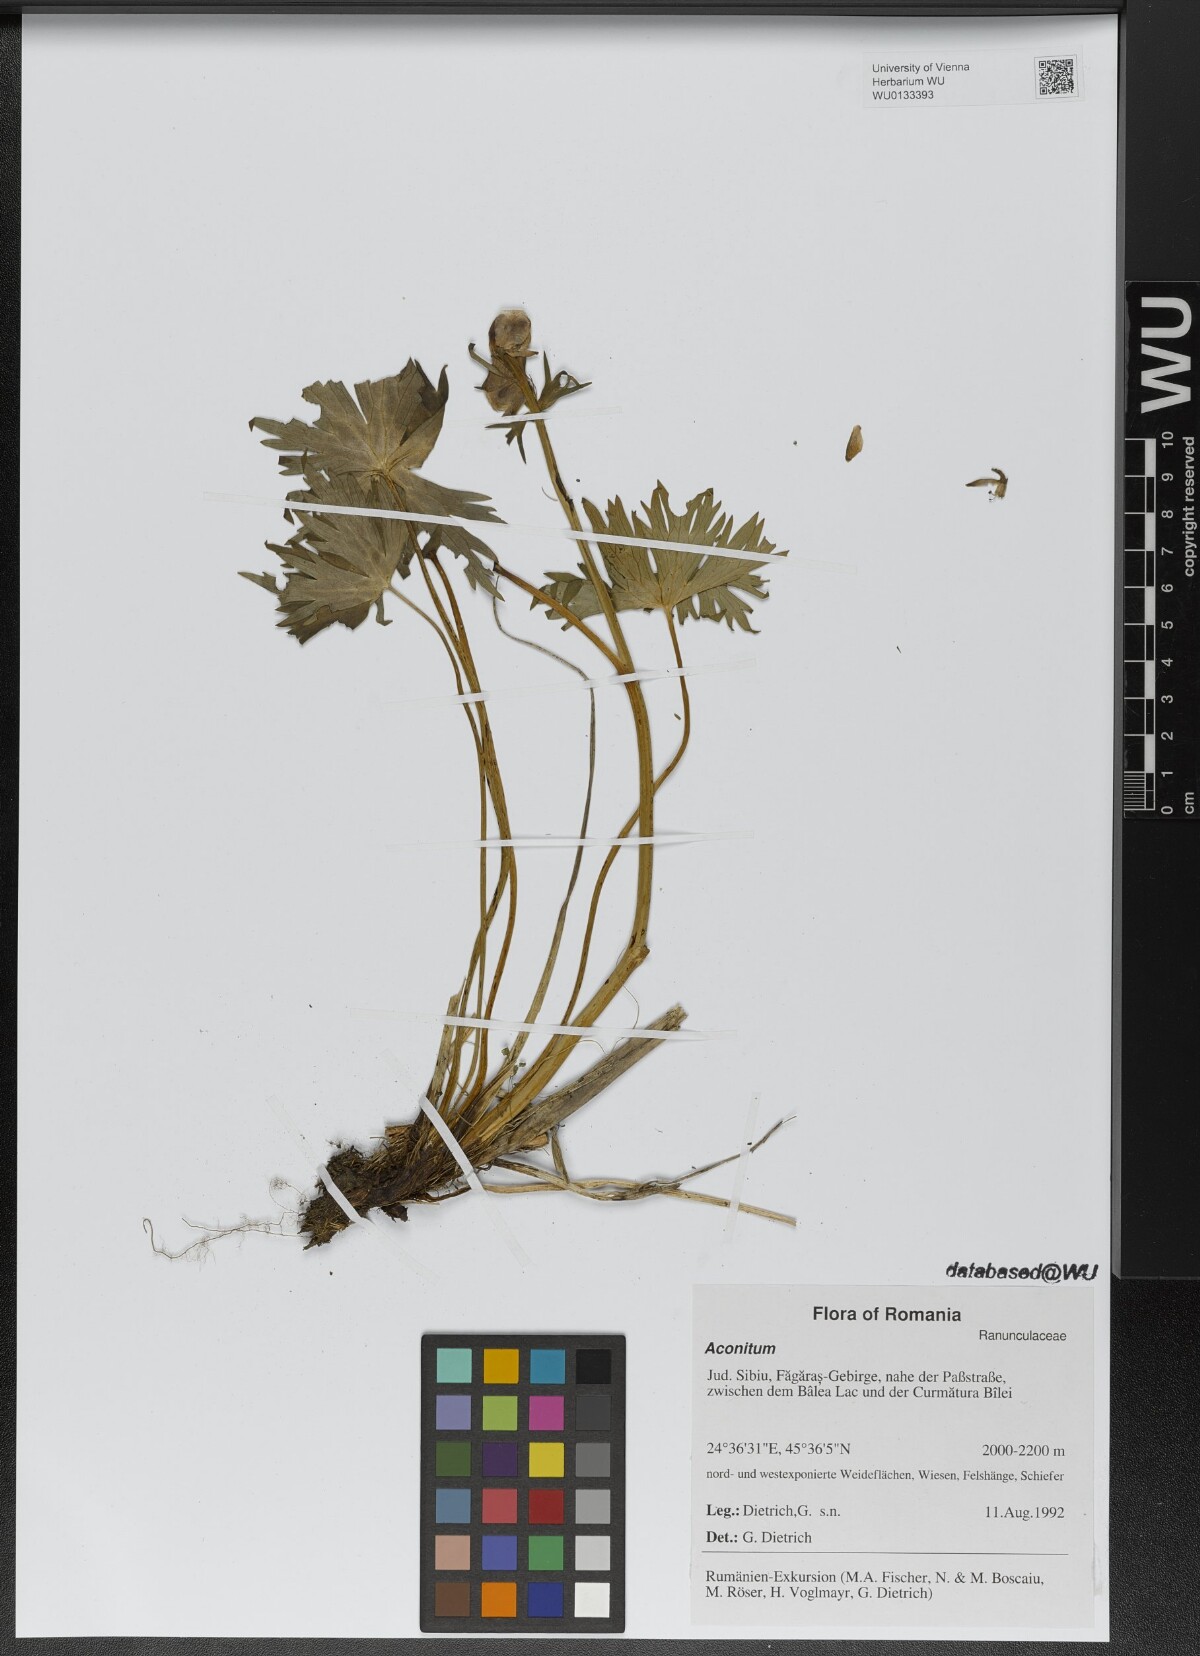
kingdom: Plantae
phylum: Tracheophyta
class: Magnoliopsida
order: Ranunculales
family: Ranunculaceae
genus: Aconitum
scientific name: Aconitum
